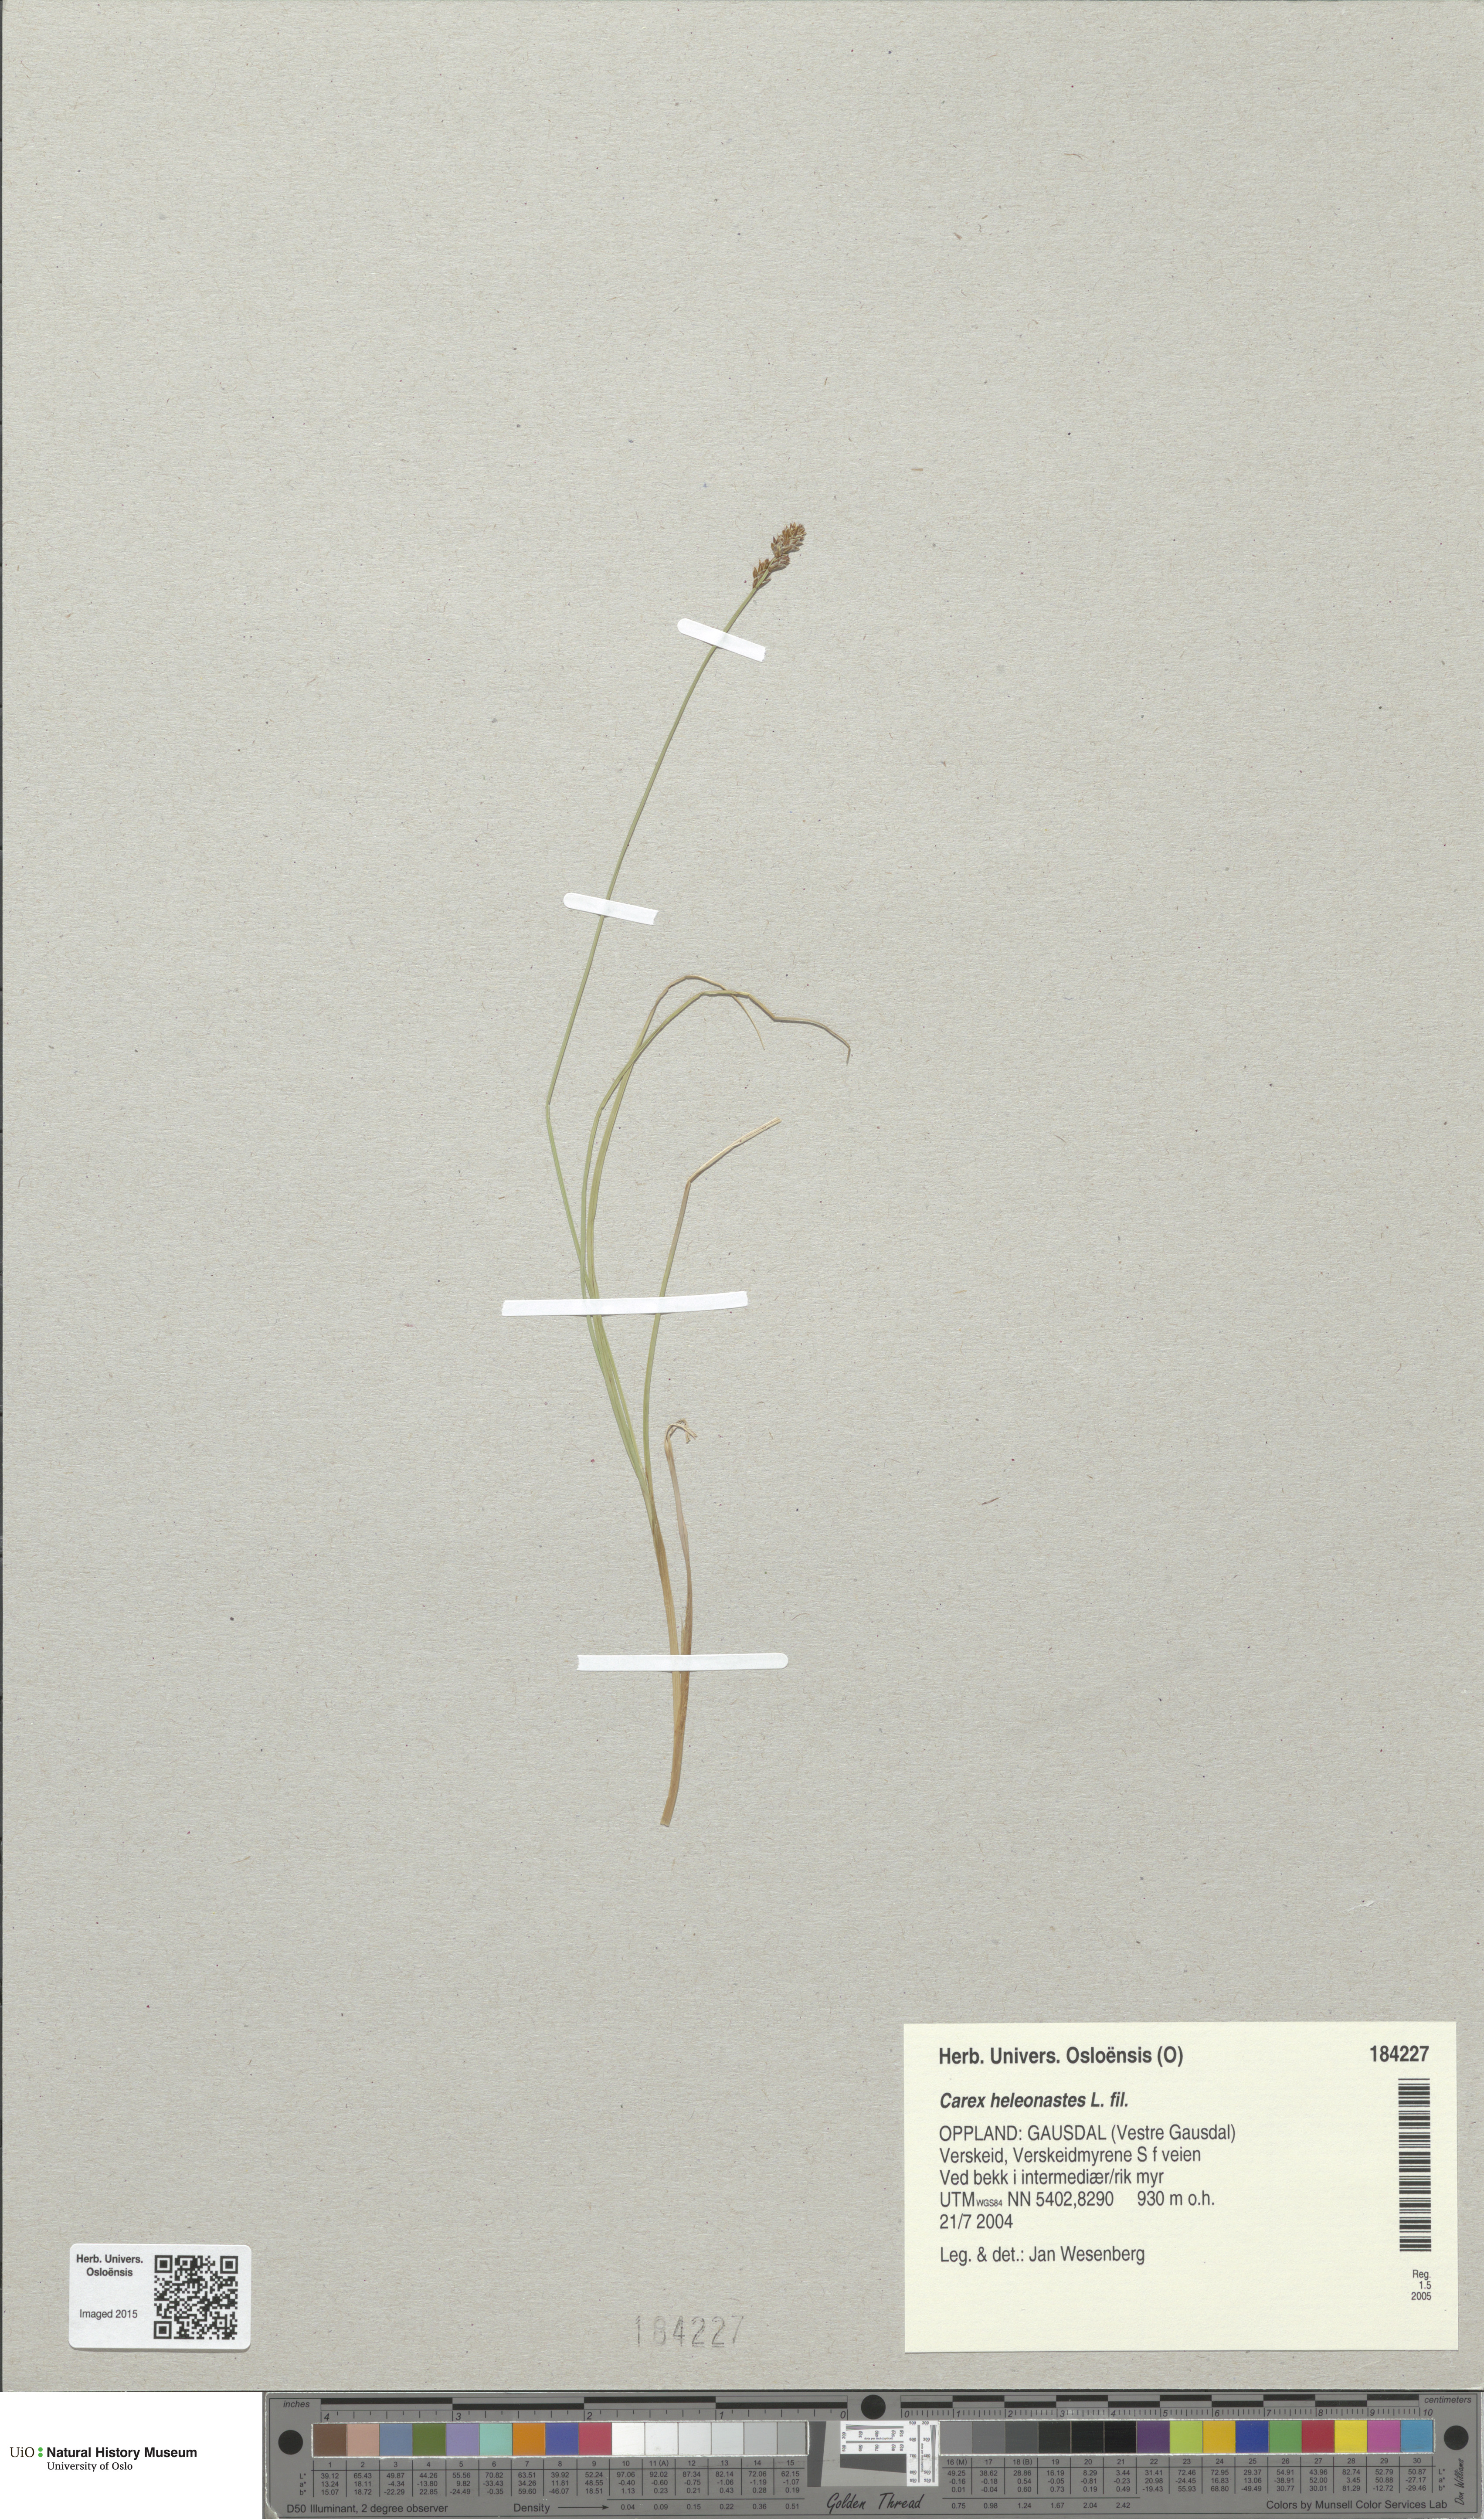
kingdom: Plantae
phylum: Tracheophyta
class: Liliopsida
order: Poales
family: Cyperaceae
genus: Carex
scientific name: Carex heleonastes
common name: Hudson bay sedge
